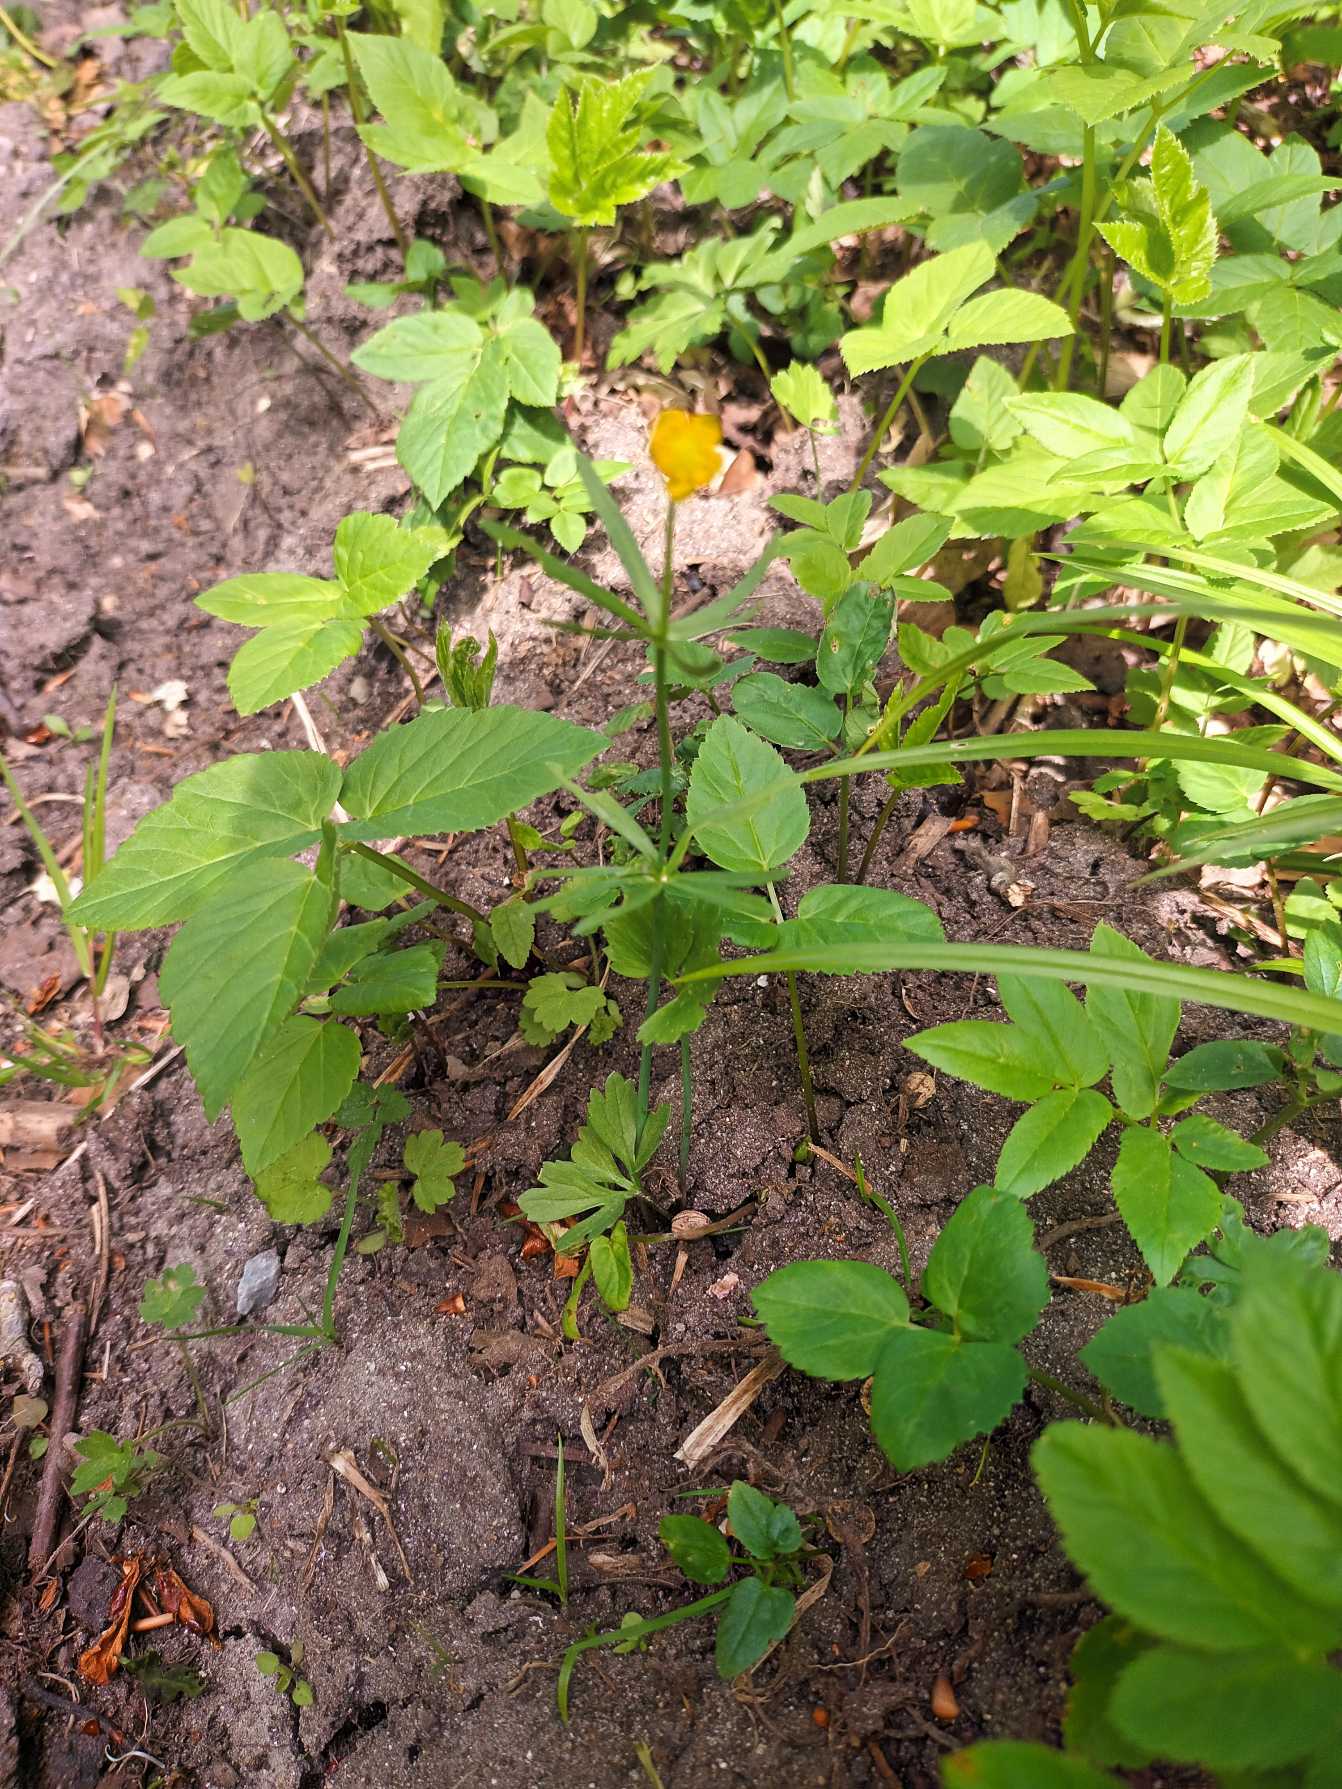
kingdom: Plantae
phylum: Tracheophyta
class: Magnoliopsida
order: Ranunculales
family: Ranunculaceae
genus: Ranunculus
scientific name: Ranunculus auricomus
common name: Nyrebladet ranunkel
